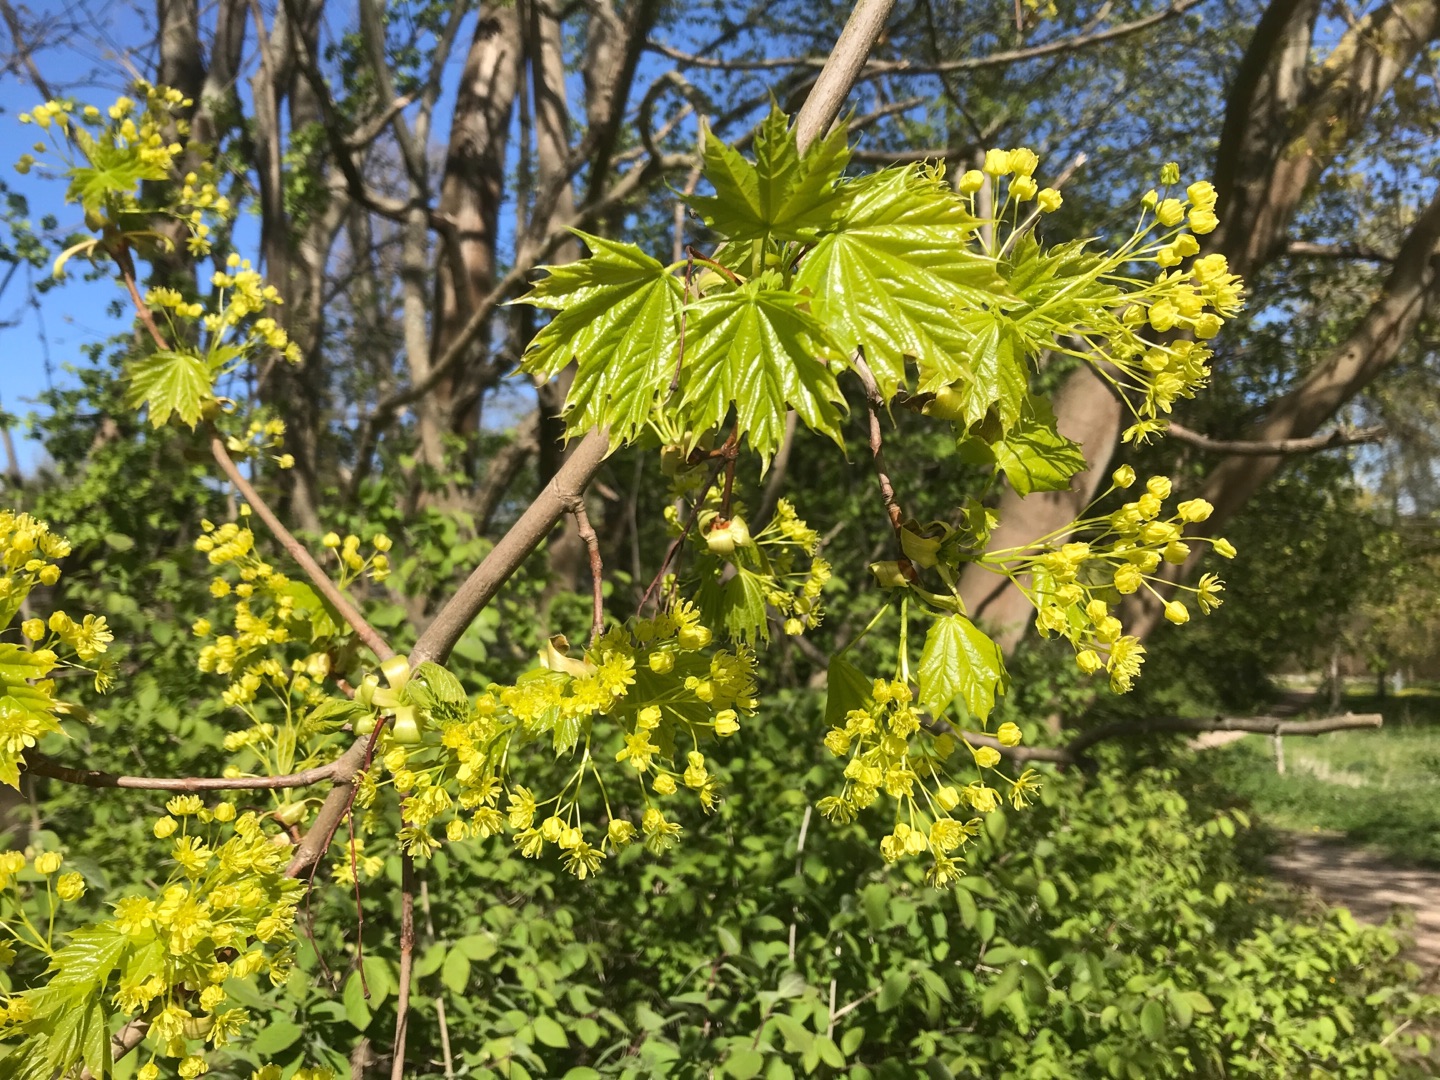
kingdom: Plantae
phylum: Tracheophyta
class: Magnoliopsida
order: Sapindales
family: Sapindaceae
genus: Acer
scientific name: Acer platanoides
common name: Spids-løn
